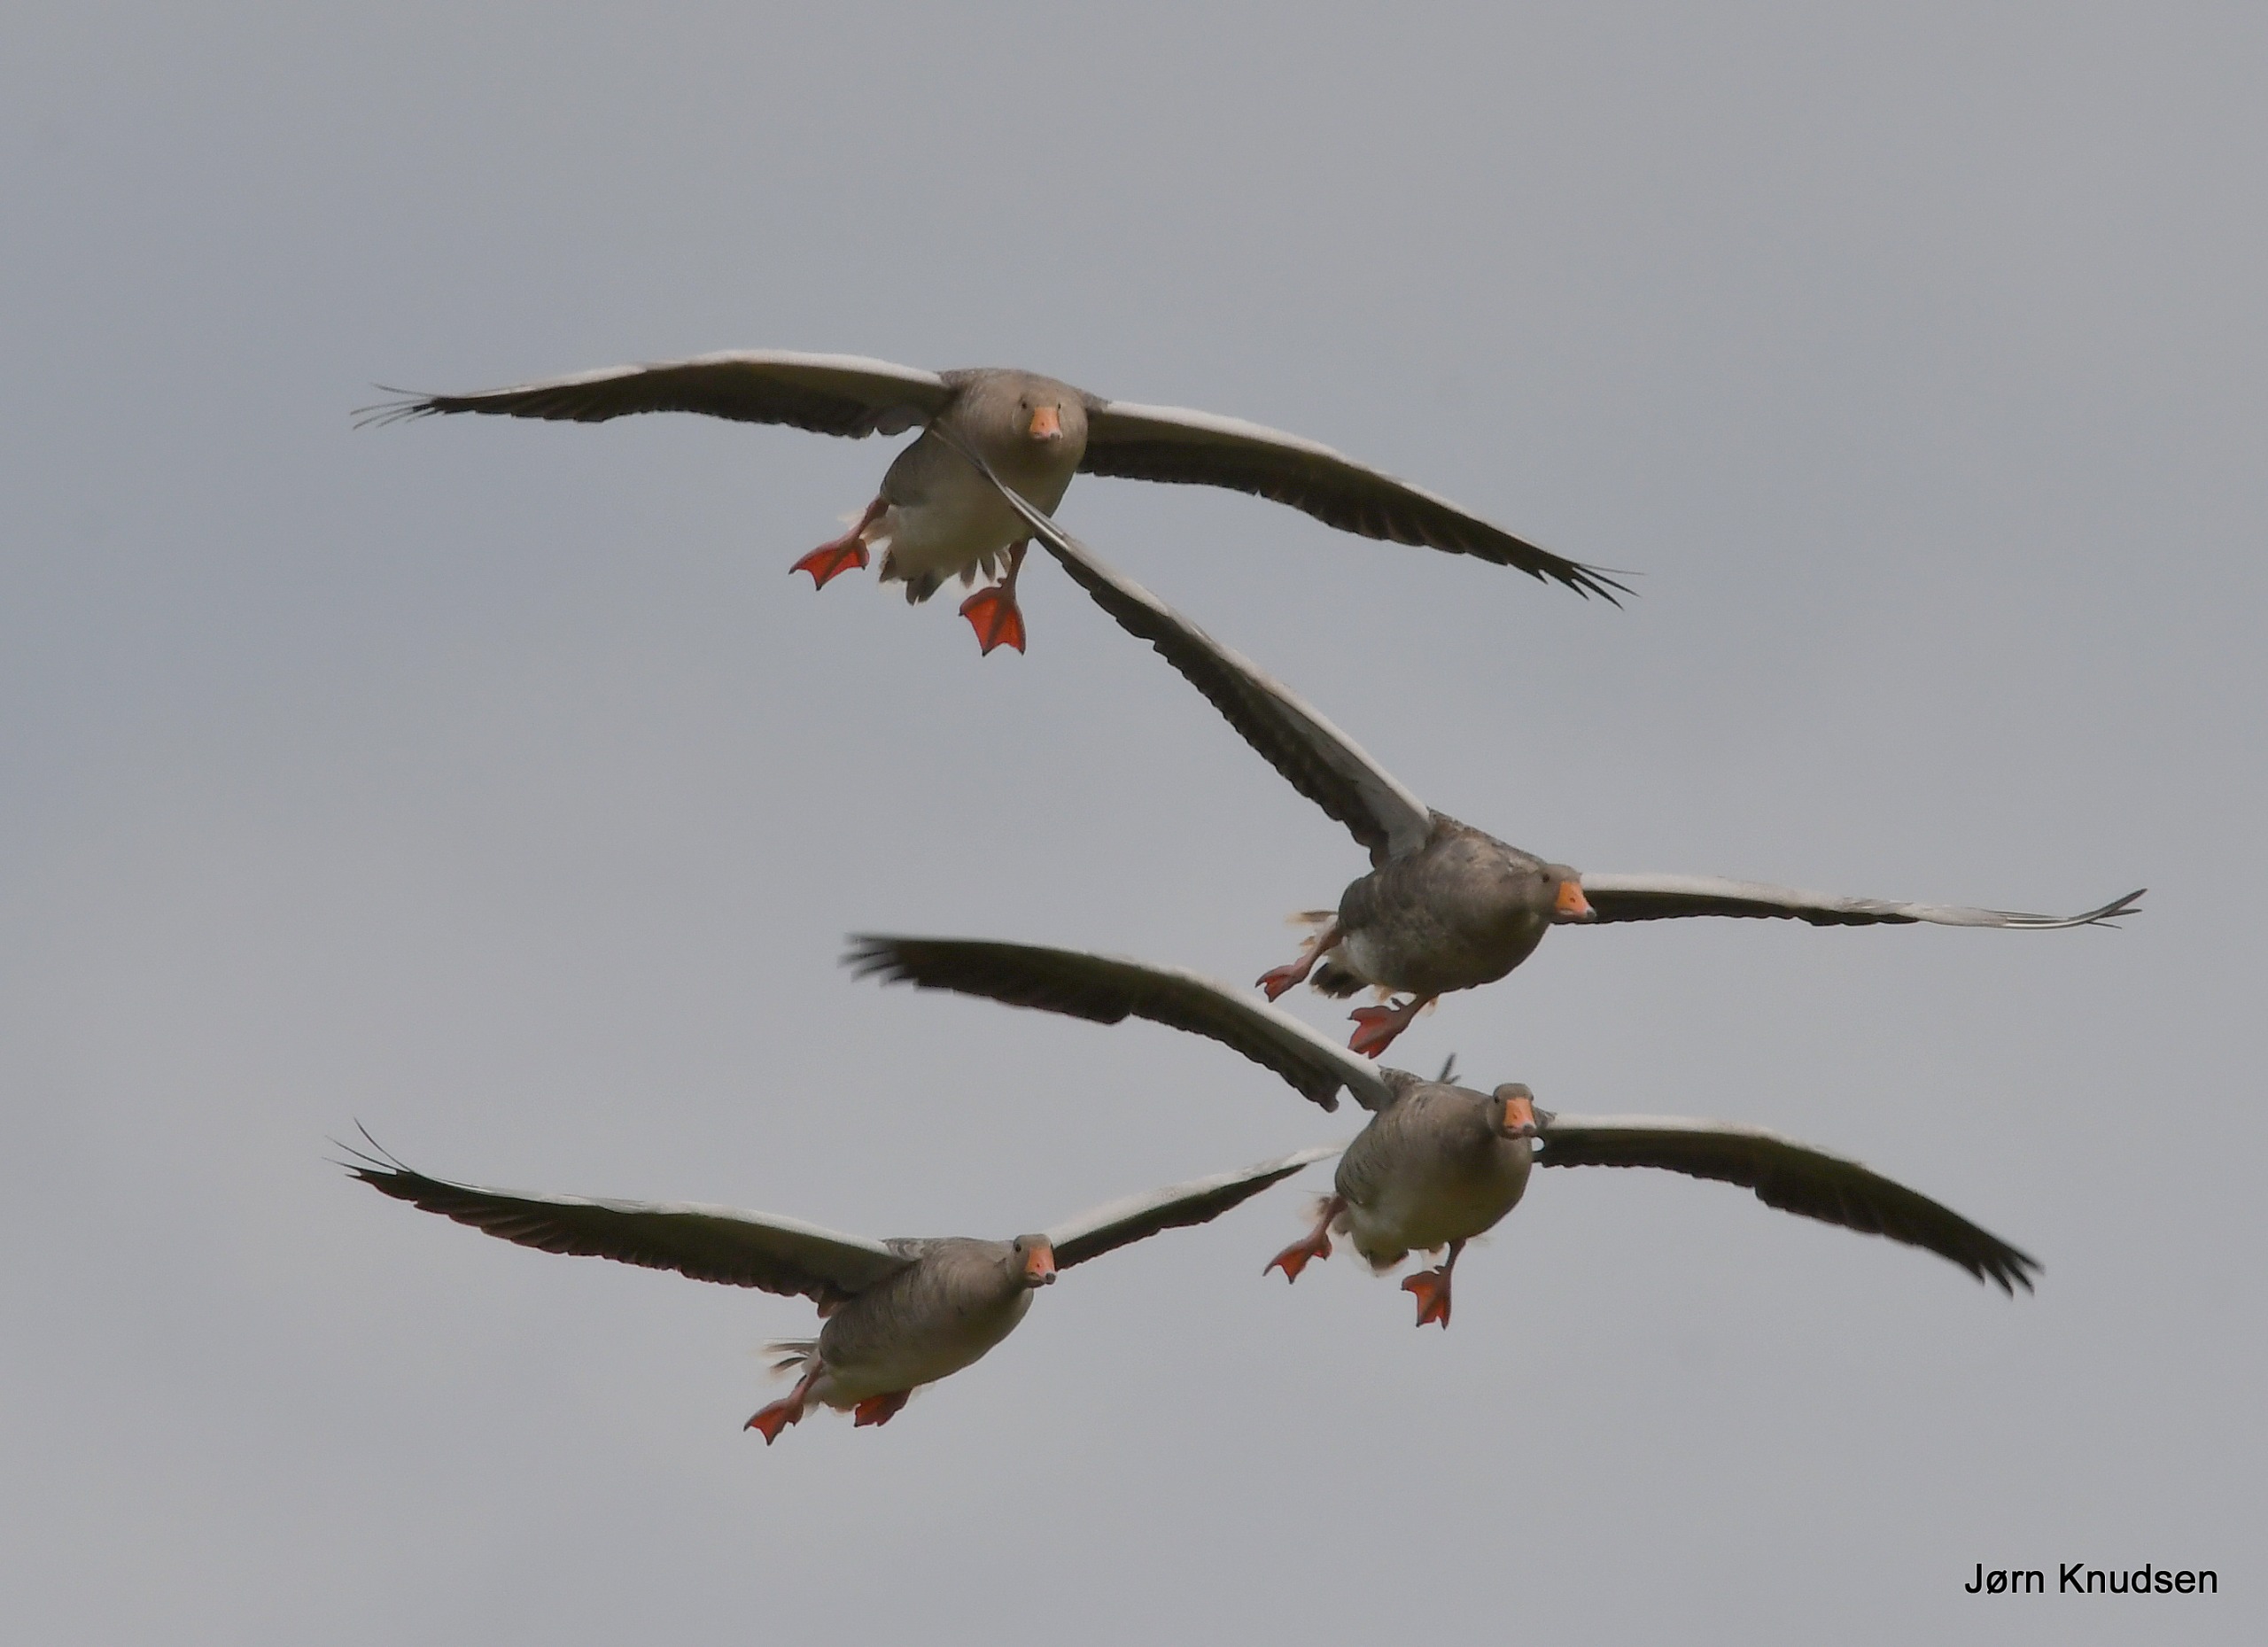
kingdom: Animalia
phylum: Chordata
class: Aves
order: Anseriformes
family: Anatidae
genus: Anser
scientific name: Anser anser
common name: Grågås
